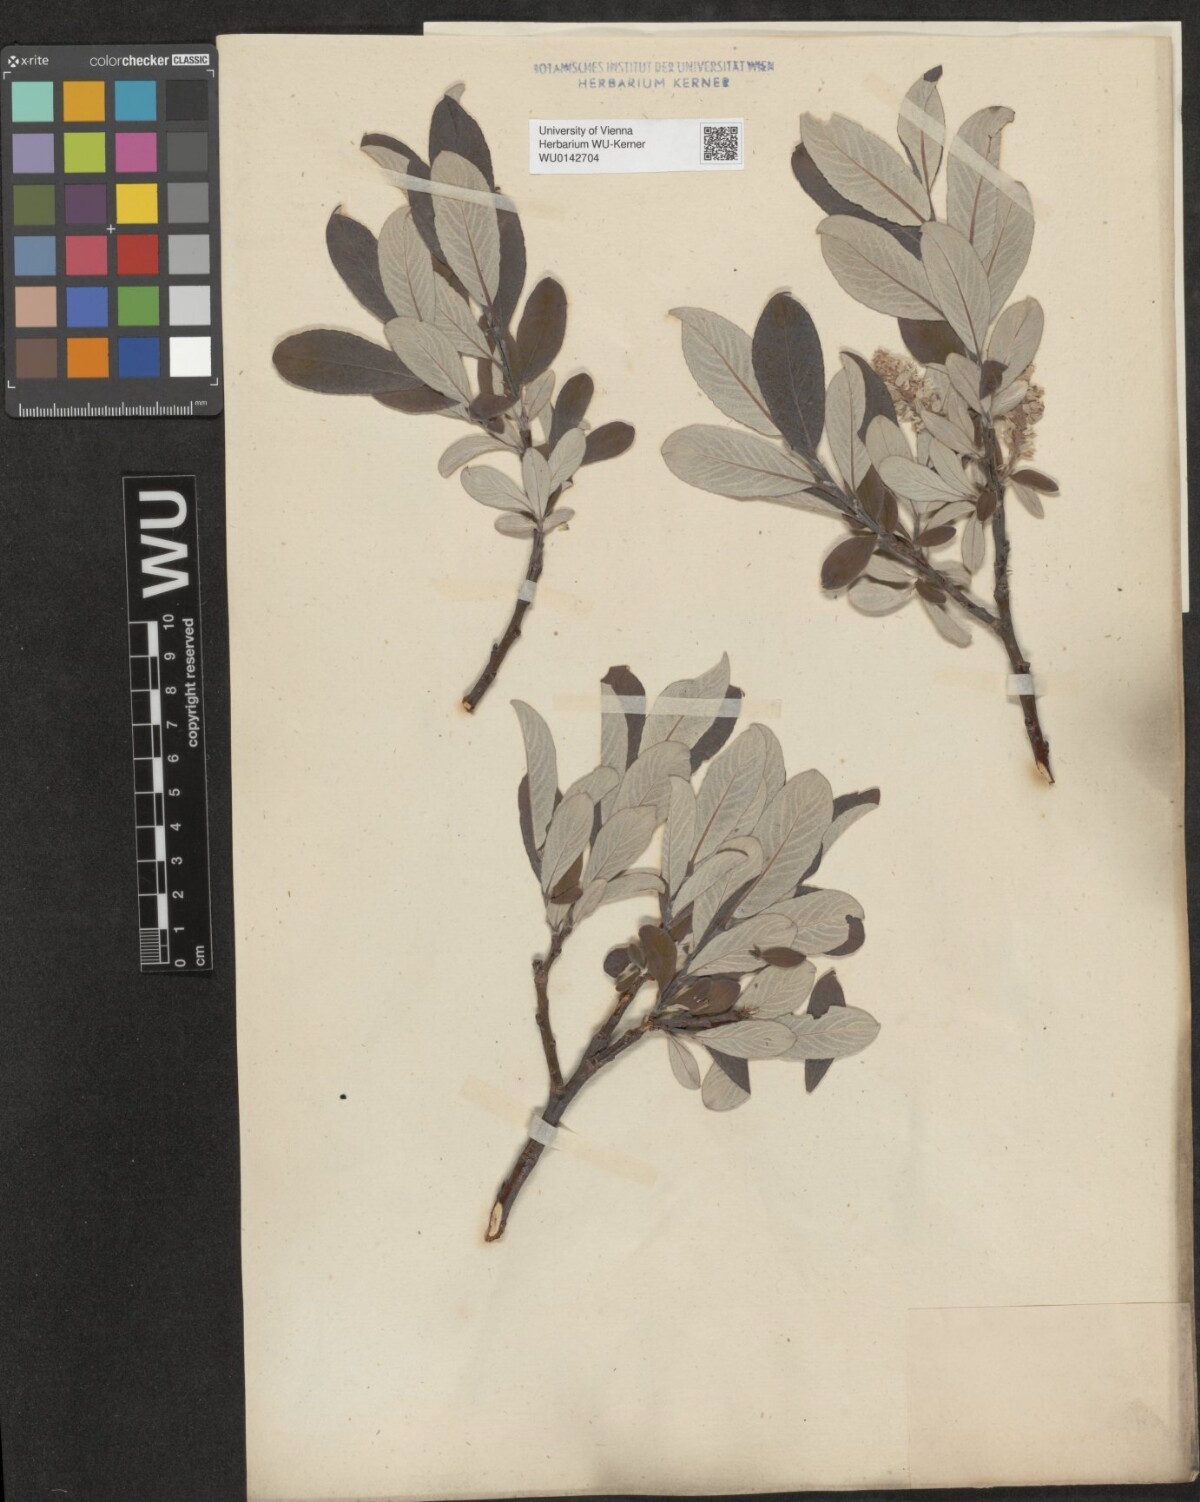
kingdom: Plantae
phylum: Tracheophyta
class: Magnoliopsida
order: Malpighiales
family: Salicaceae
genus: Salix
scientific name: Salix helvetica
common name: Swiss willow
